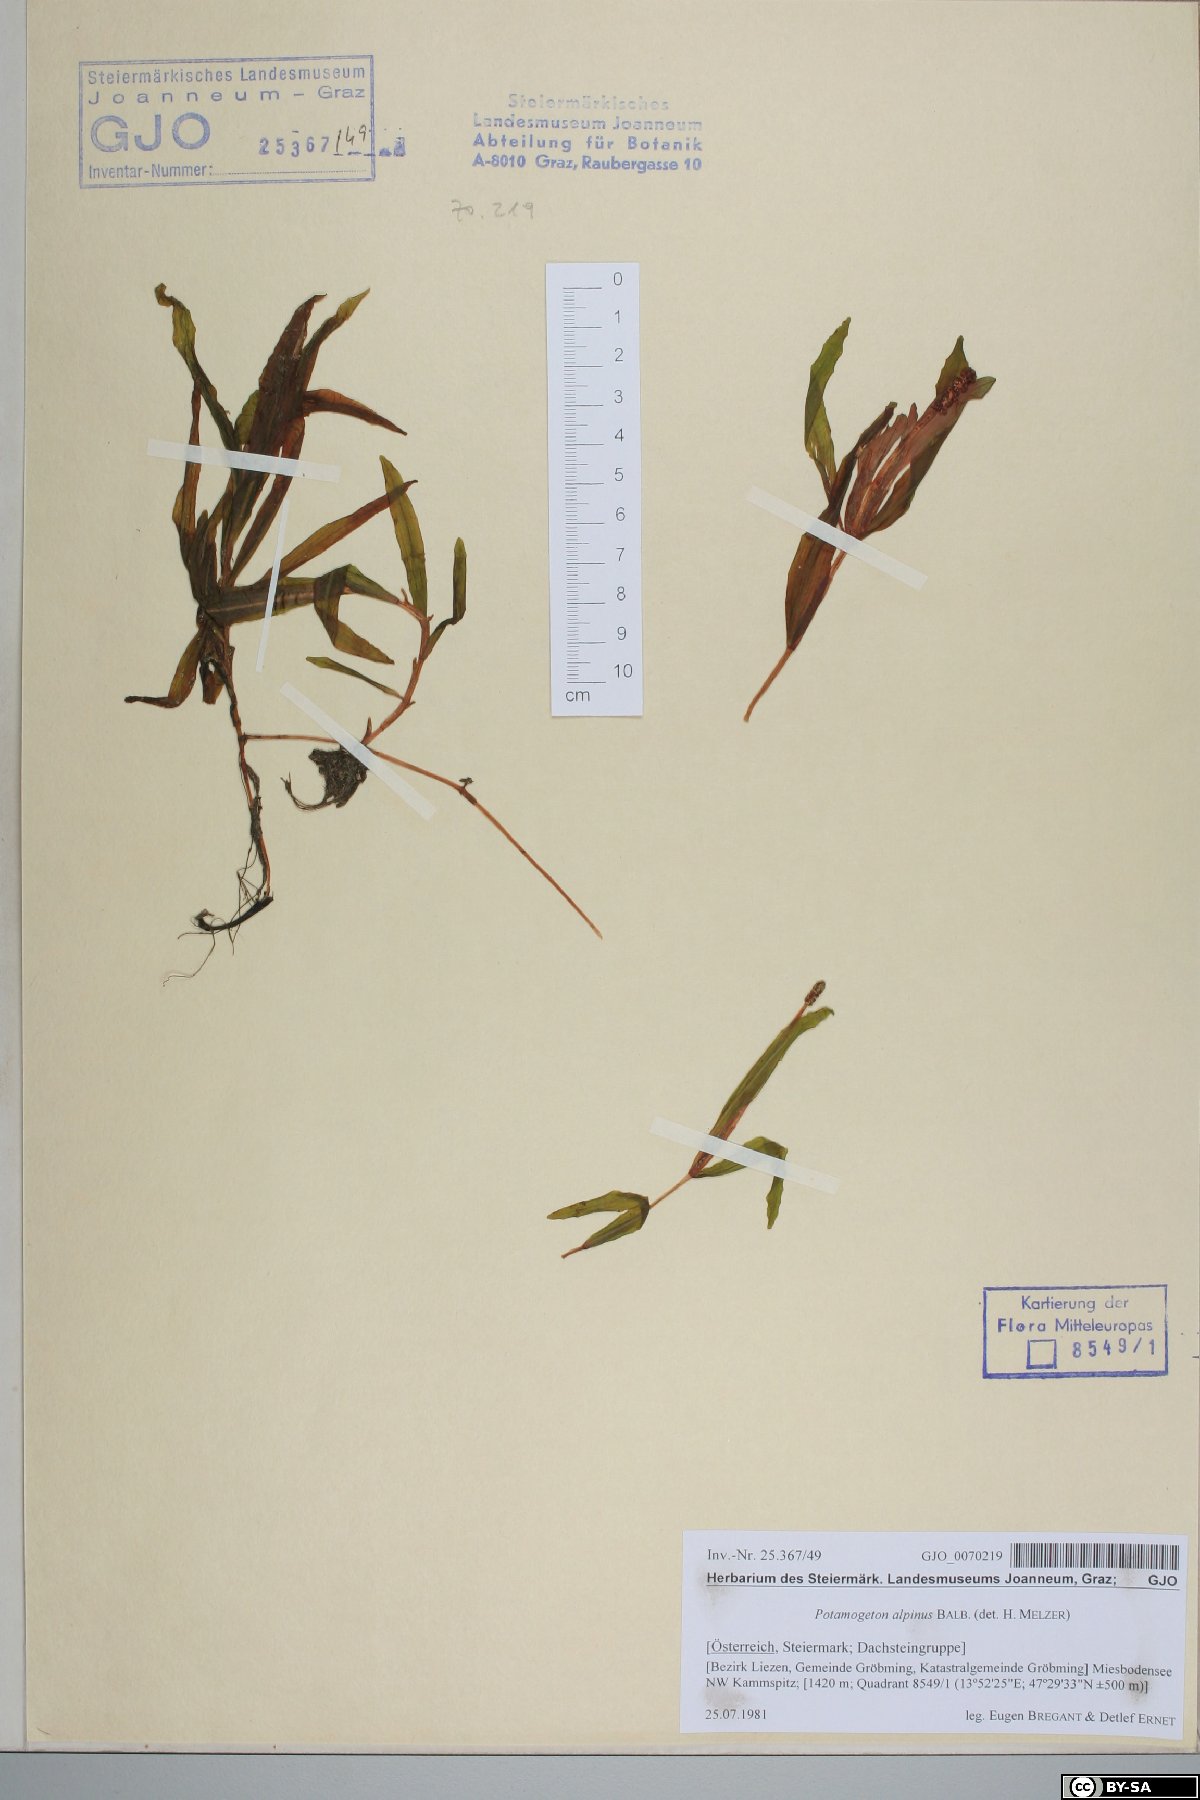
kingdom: Plantae
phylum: Tracheophyta
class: Liliopsida
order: Alismatales
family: Potamogetonaceae
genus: Potamogeton
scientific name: Potamogeton alpinus
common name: Red pondweed
